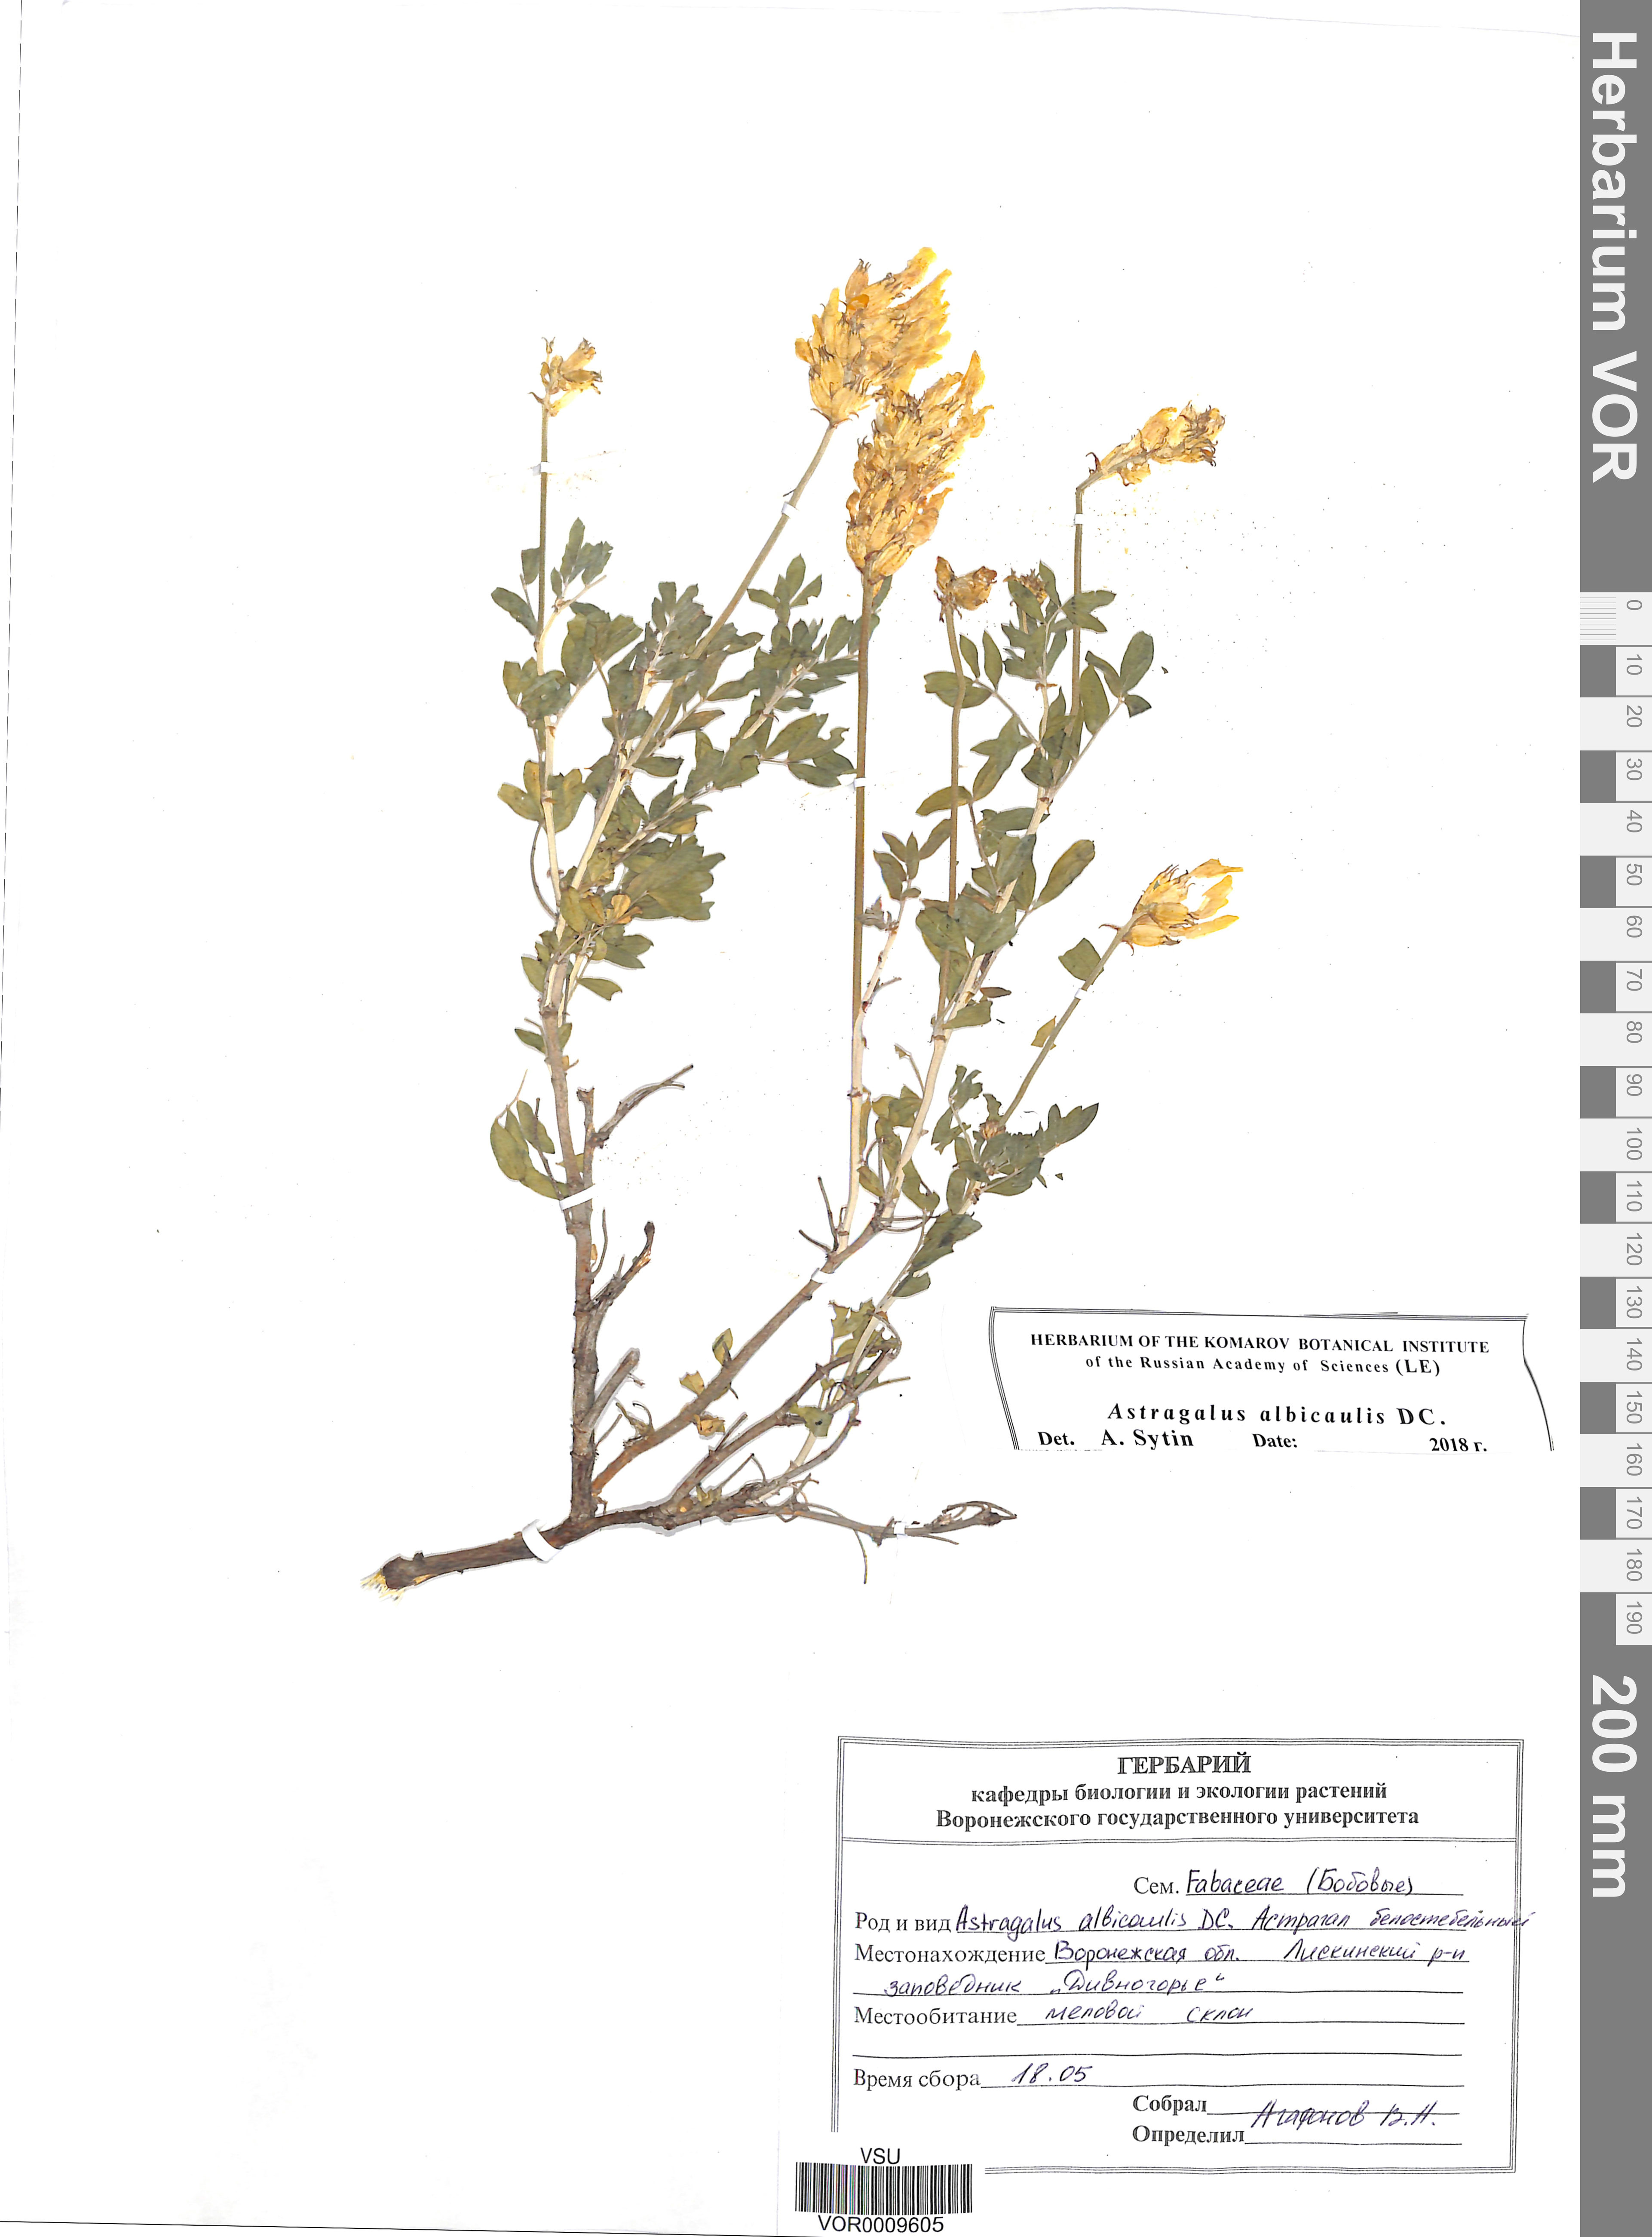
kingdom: Plantae
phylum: Tracheophyta
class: Magnoliopsida
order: Fabales
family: Fabaceae
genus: Astragalus
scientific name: Astragalus albicaulis
